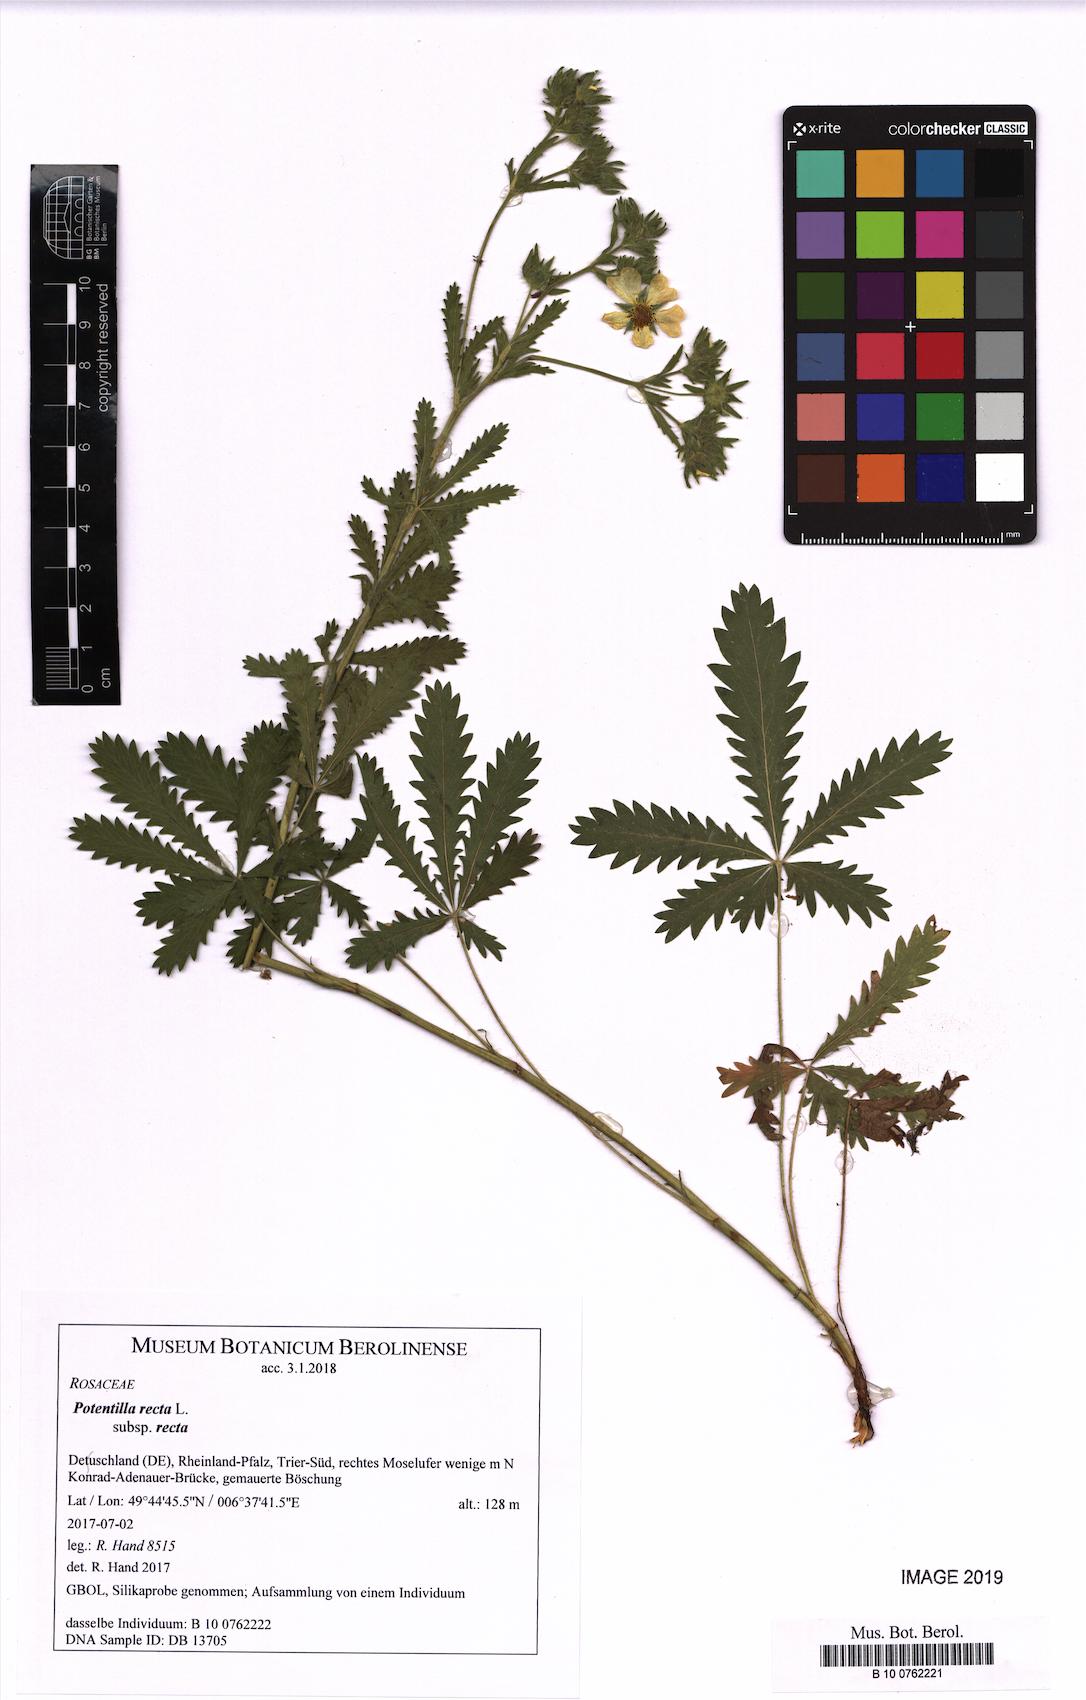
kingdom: Plantae
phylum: Tracheophyta
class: Magnoliopsida
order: Rosales
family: Rosaceae
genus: Potentilla
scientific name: Potentilla recta
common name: Sulphur cinquefoil
